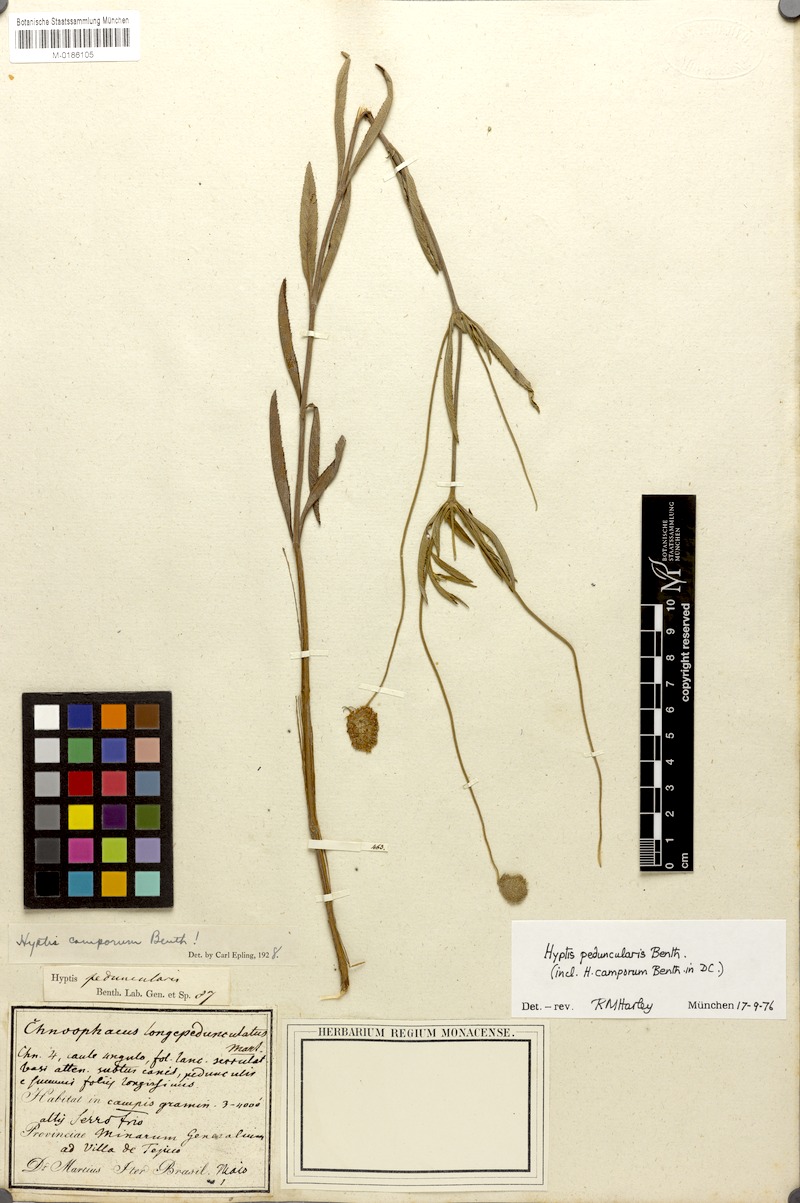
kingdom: Plantae
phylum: Tracheophyta
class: Magnoliopsida
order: Lamiales
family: Lamiaceae
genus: Cyanocephalus
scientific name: Cyanocephalus peduncularis
